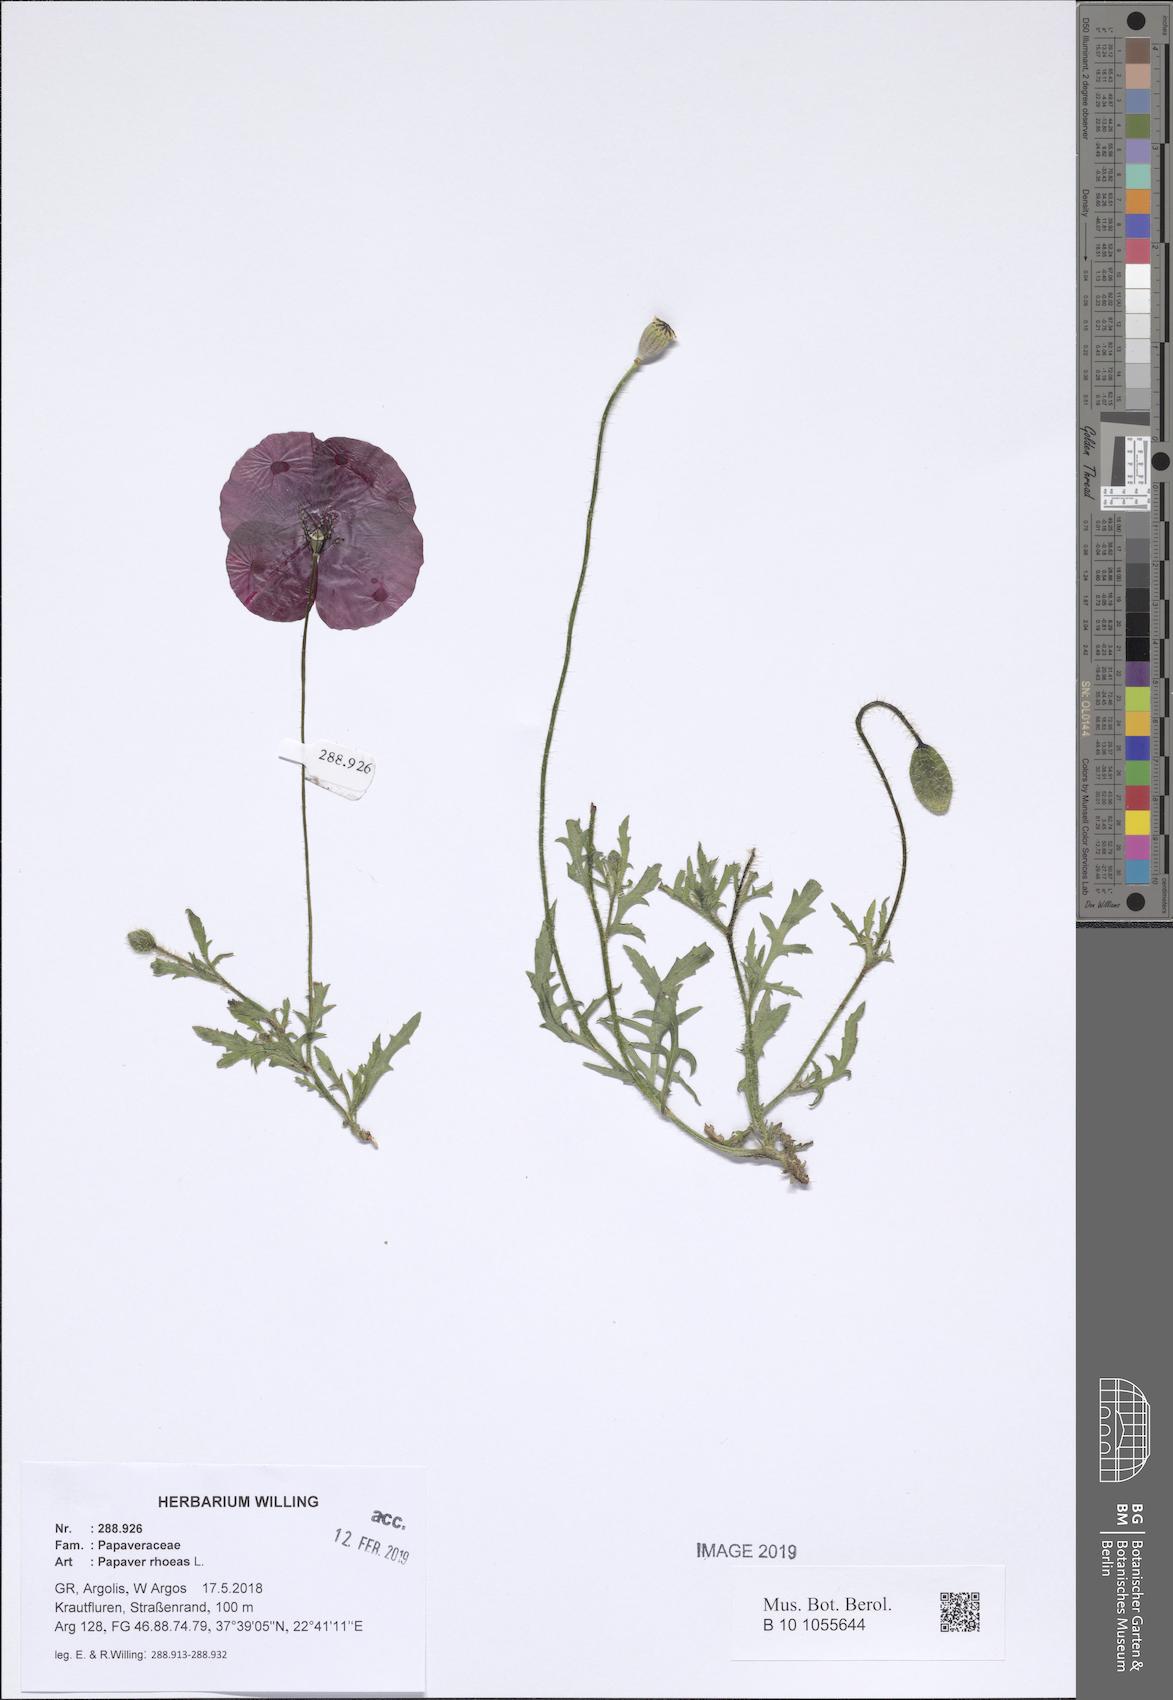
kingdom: Plantae
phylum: Tracheophyta
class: Magnoliopsida
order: Ranunculales
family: Papaveraceae
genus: Papaver
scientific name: Papaver rhoeas
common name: Corn poppy
